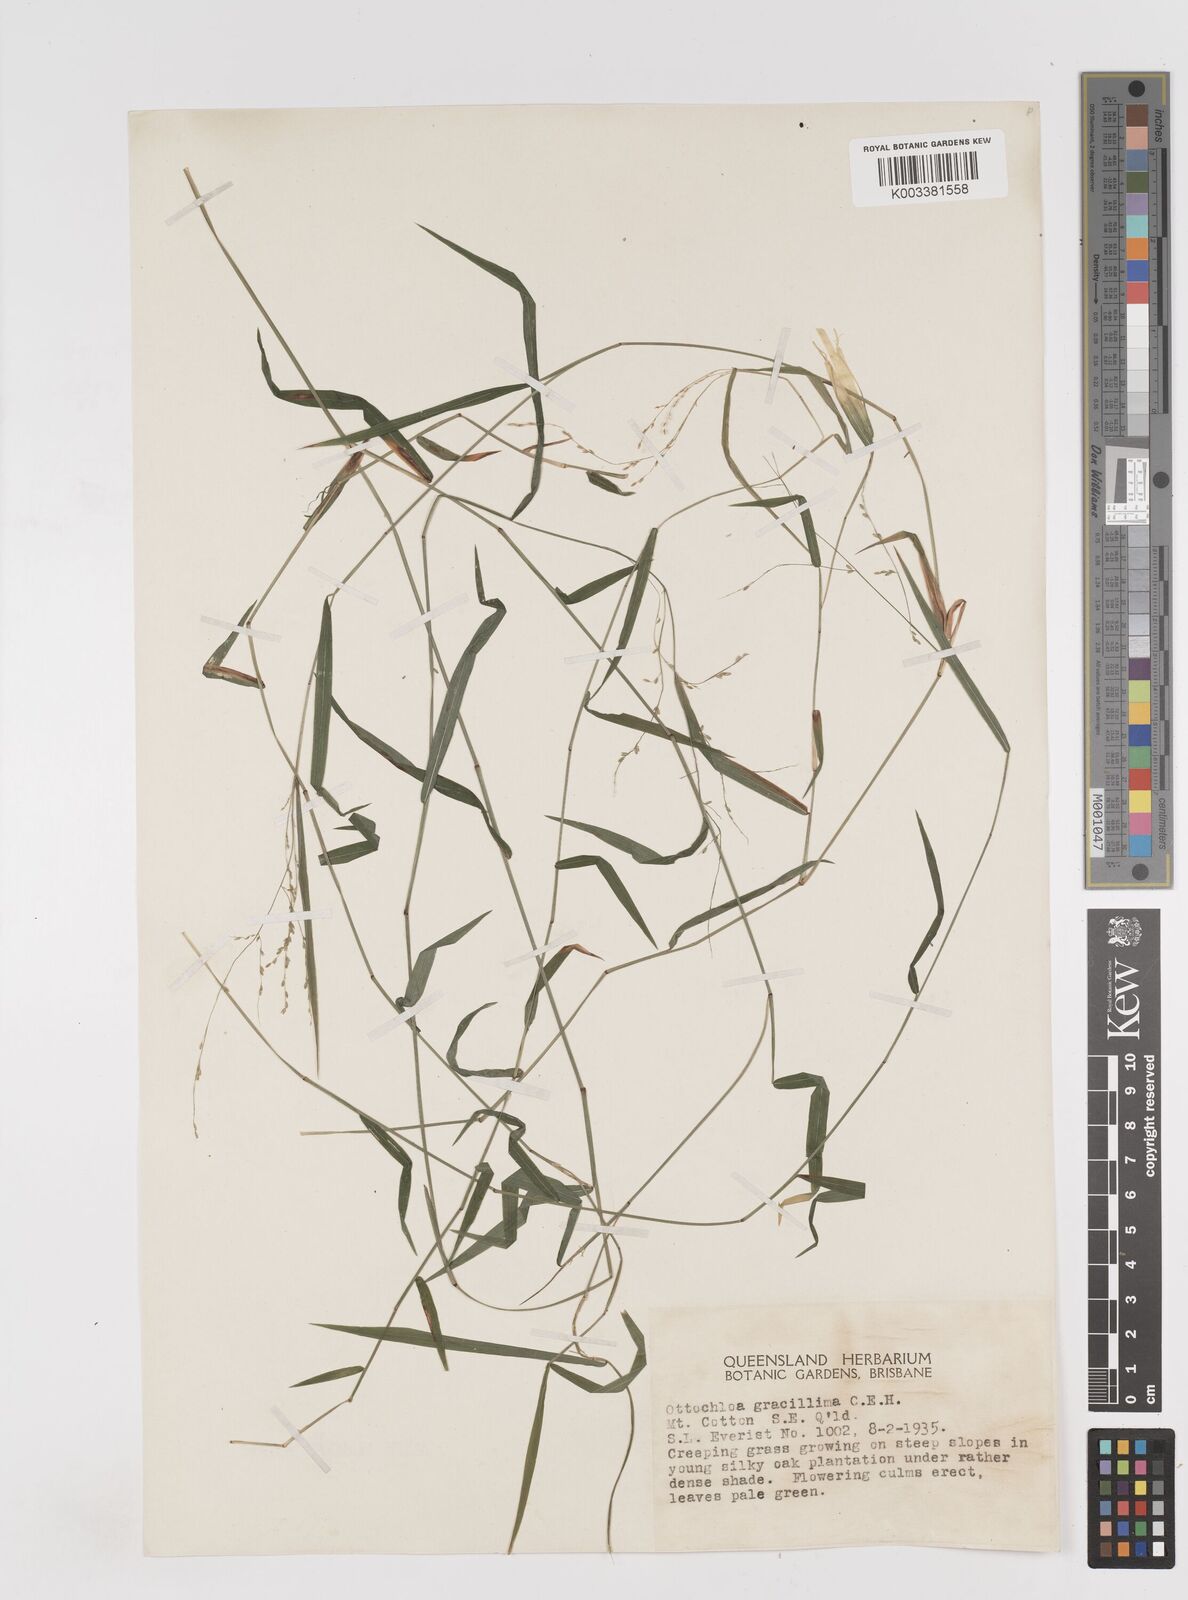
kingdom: Plantae
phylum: Tracheophyta
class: Liliopsida
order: Poales
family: Poaceae
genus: Ottochloa
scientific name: Ottochloa gracillima
